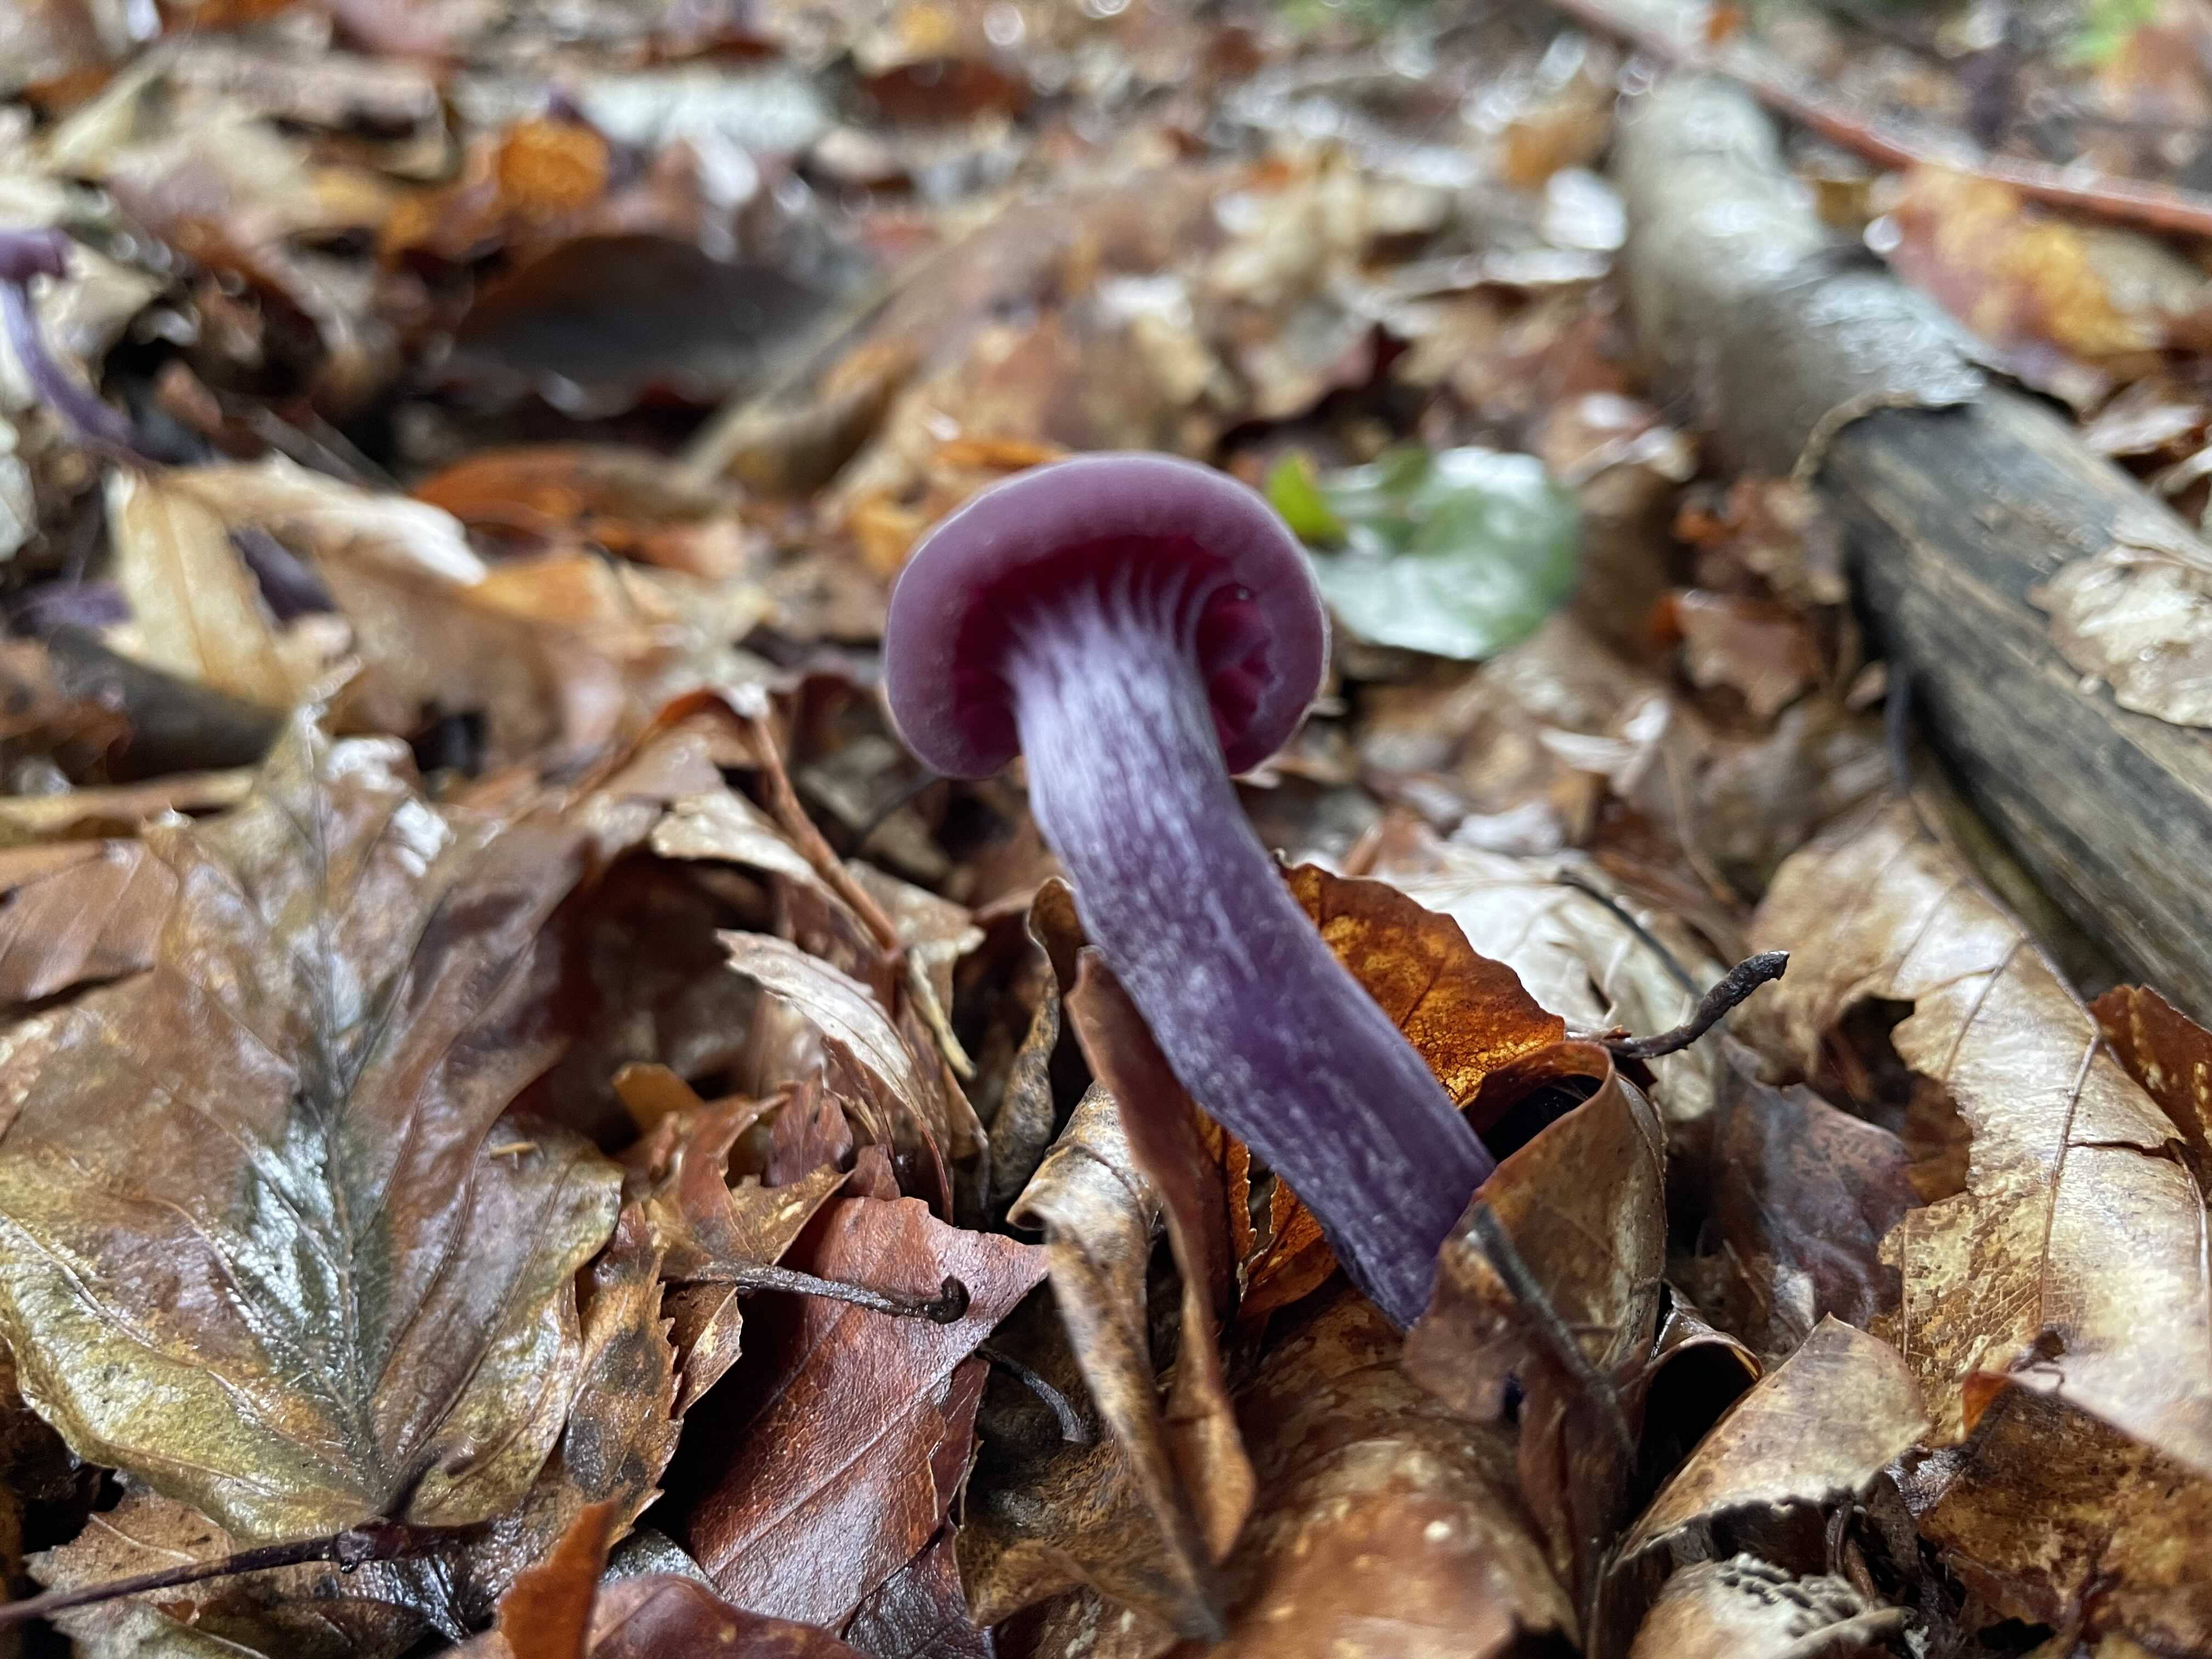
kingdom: Fungi
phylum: Basidiomycota
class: Agaricomycetes
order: Agaricales
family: Hydnangiaceae
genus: Laccaria
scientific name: Laccaria amethystina
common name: violet ametysthat
